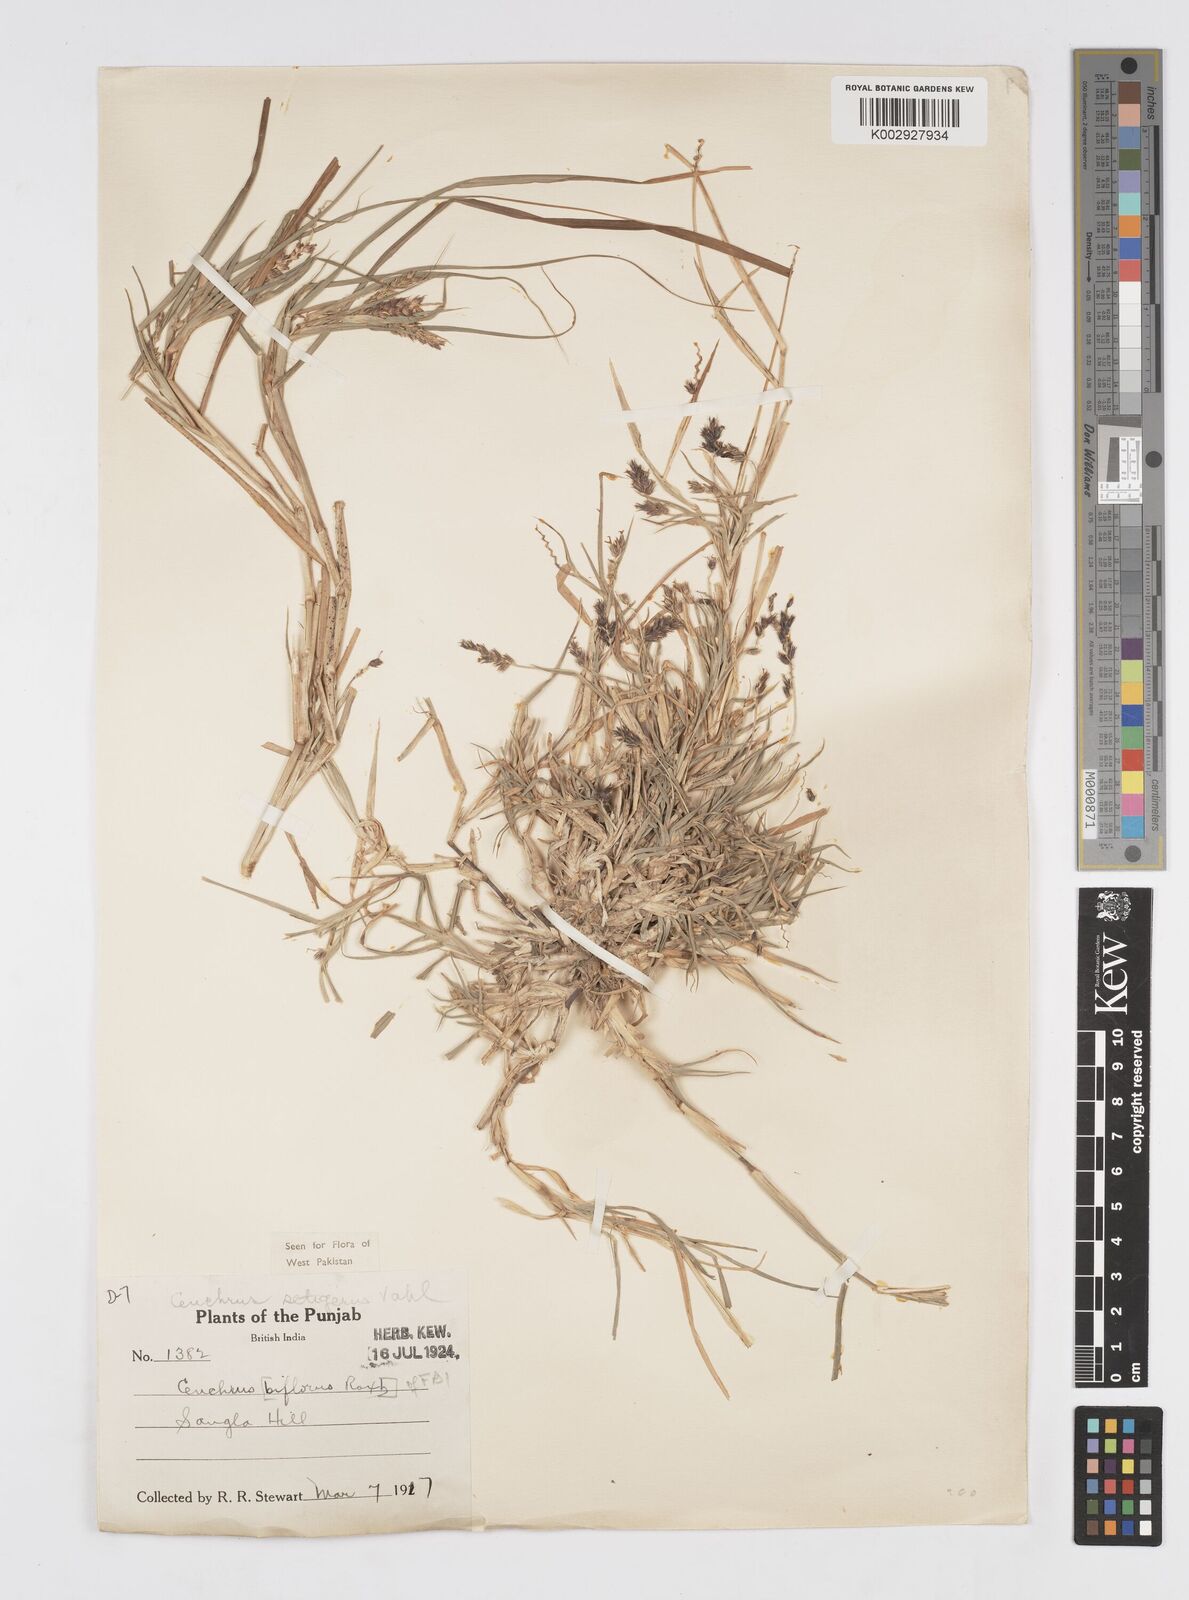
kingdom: Plantae
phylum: Tracheophyta
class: Liliopsida
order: Poales
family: Poaceae
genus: Cenchrus
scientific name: Cenchrus setigerus
